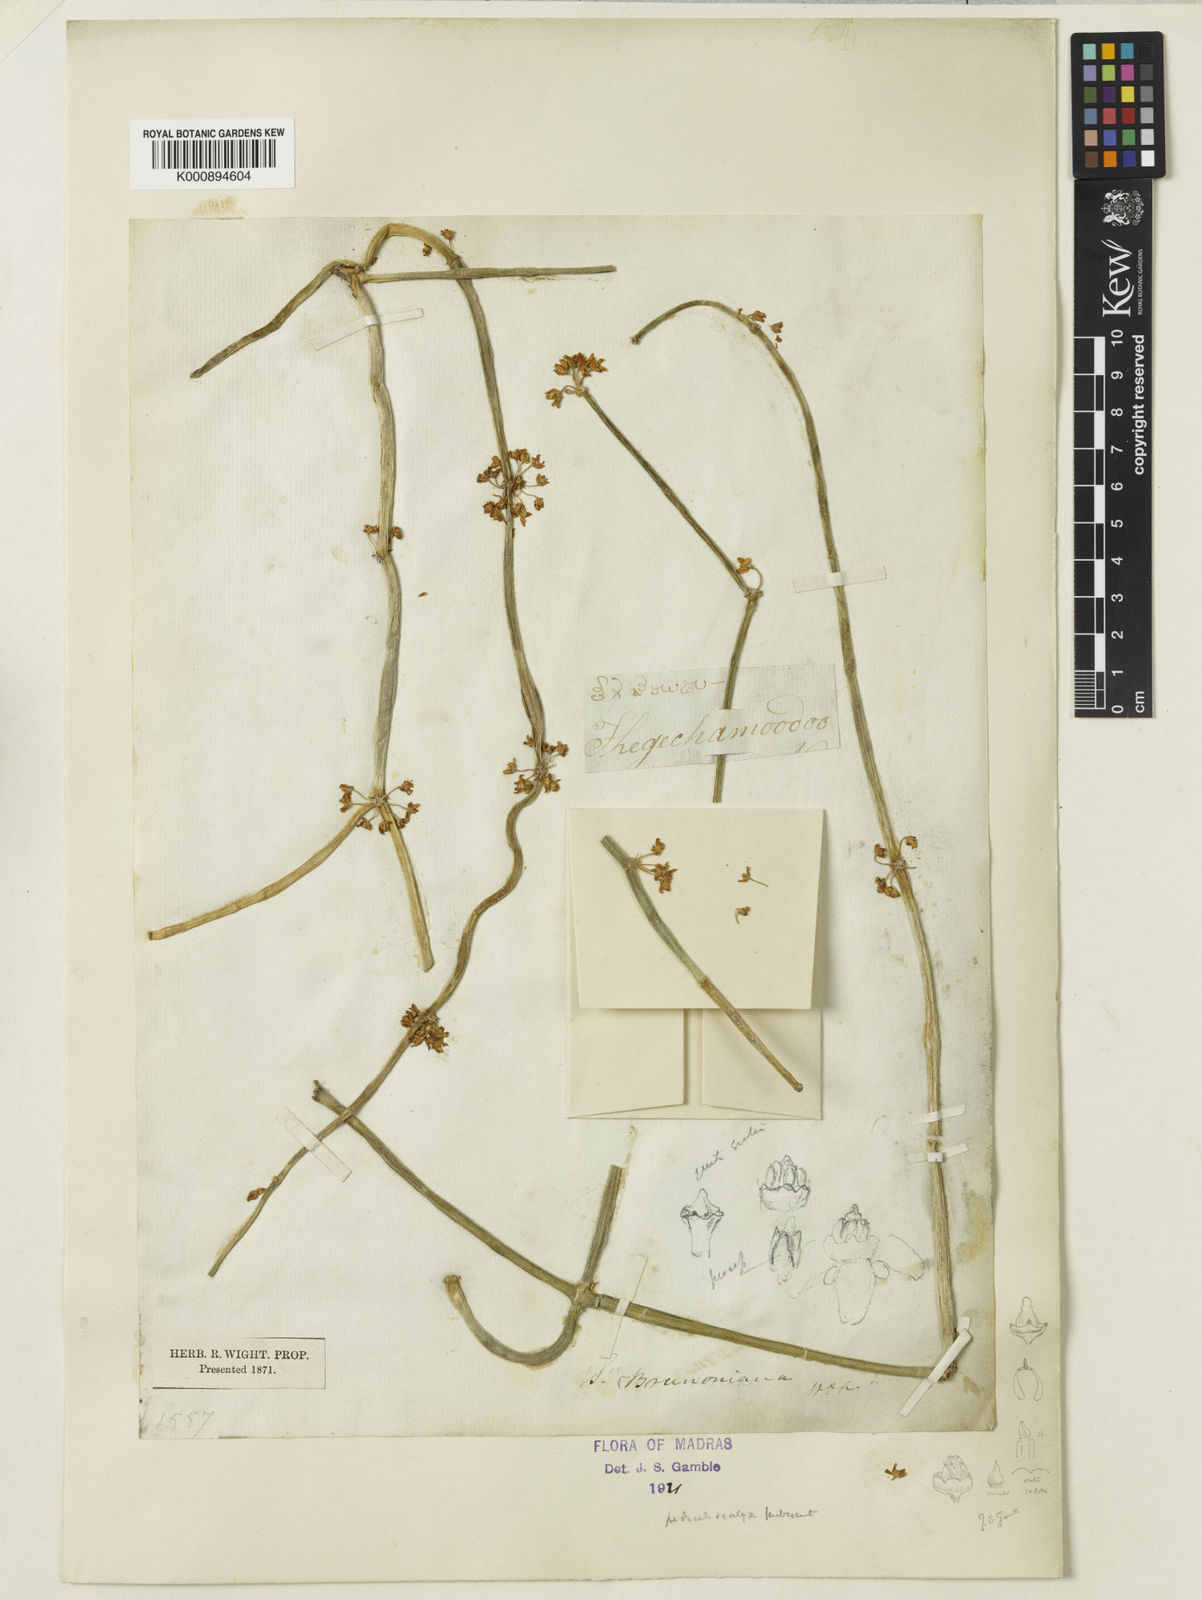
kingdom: Plantae
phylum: Tracheophyta
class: Magnoliopsida
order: Gentianales
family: Apocynaceae
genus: Cynanchum
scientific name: Cynanchum viminale
